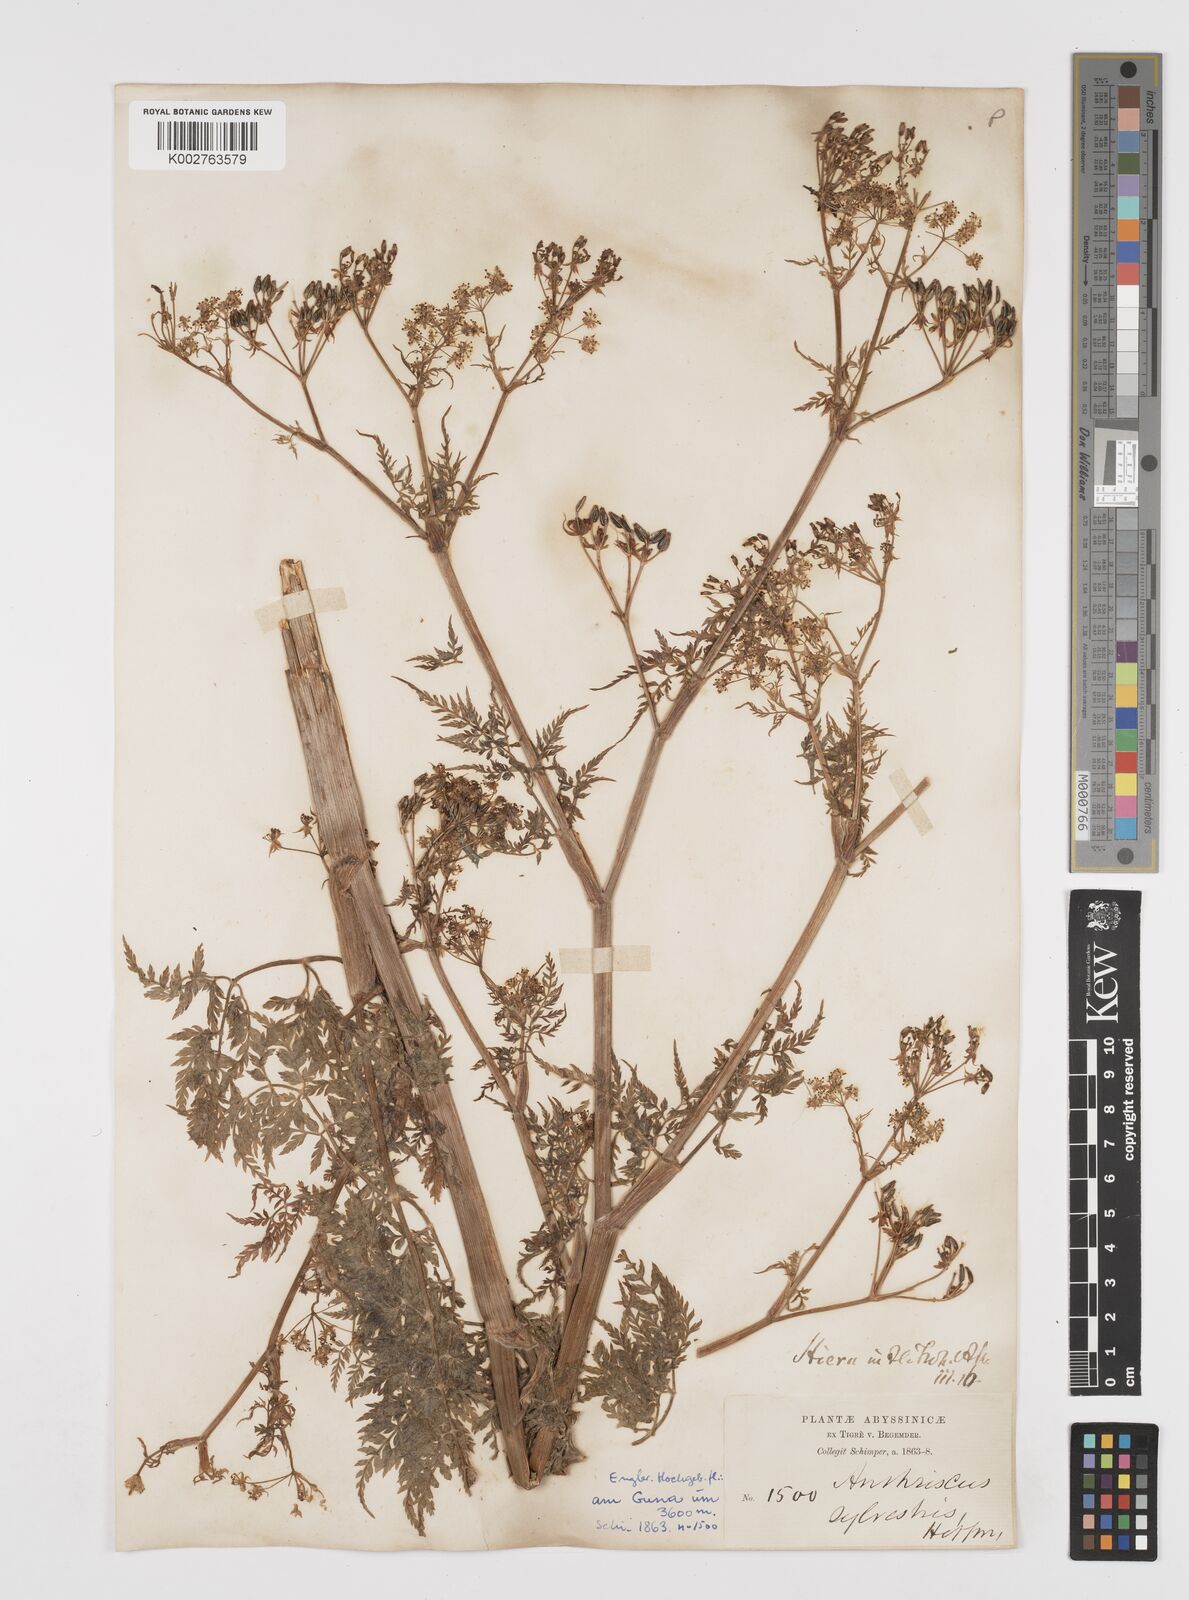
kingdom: Plantae
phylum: Tracheophyta
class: Magnoliopsida
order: Apiales
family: Apiaceae
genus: Anthriscus
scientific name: Anthriscus sylvestris
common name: Cow parsley
